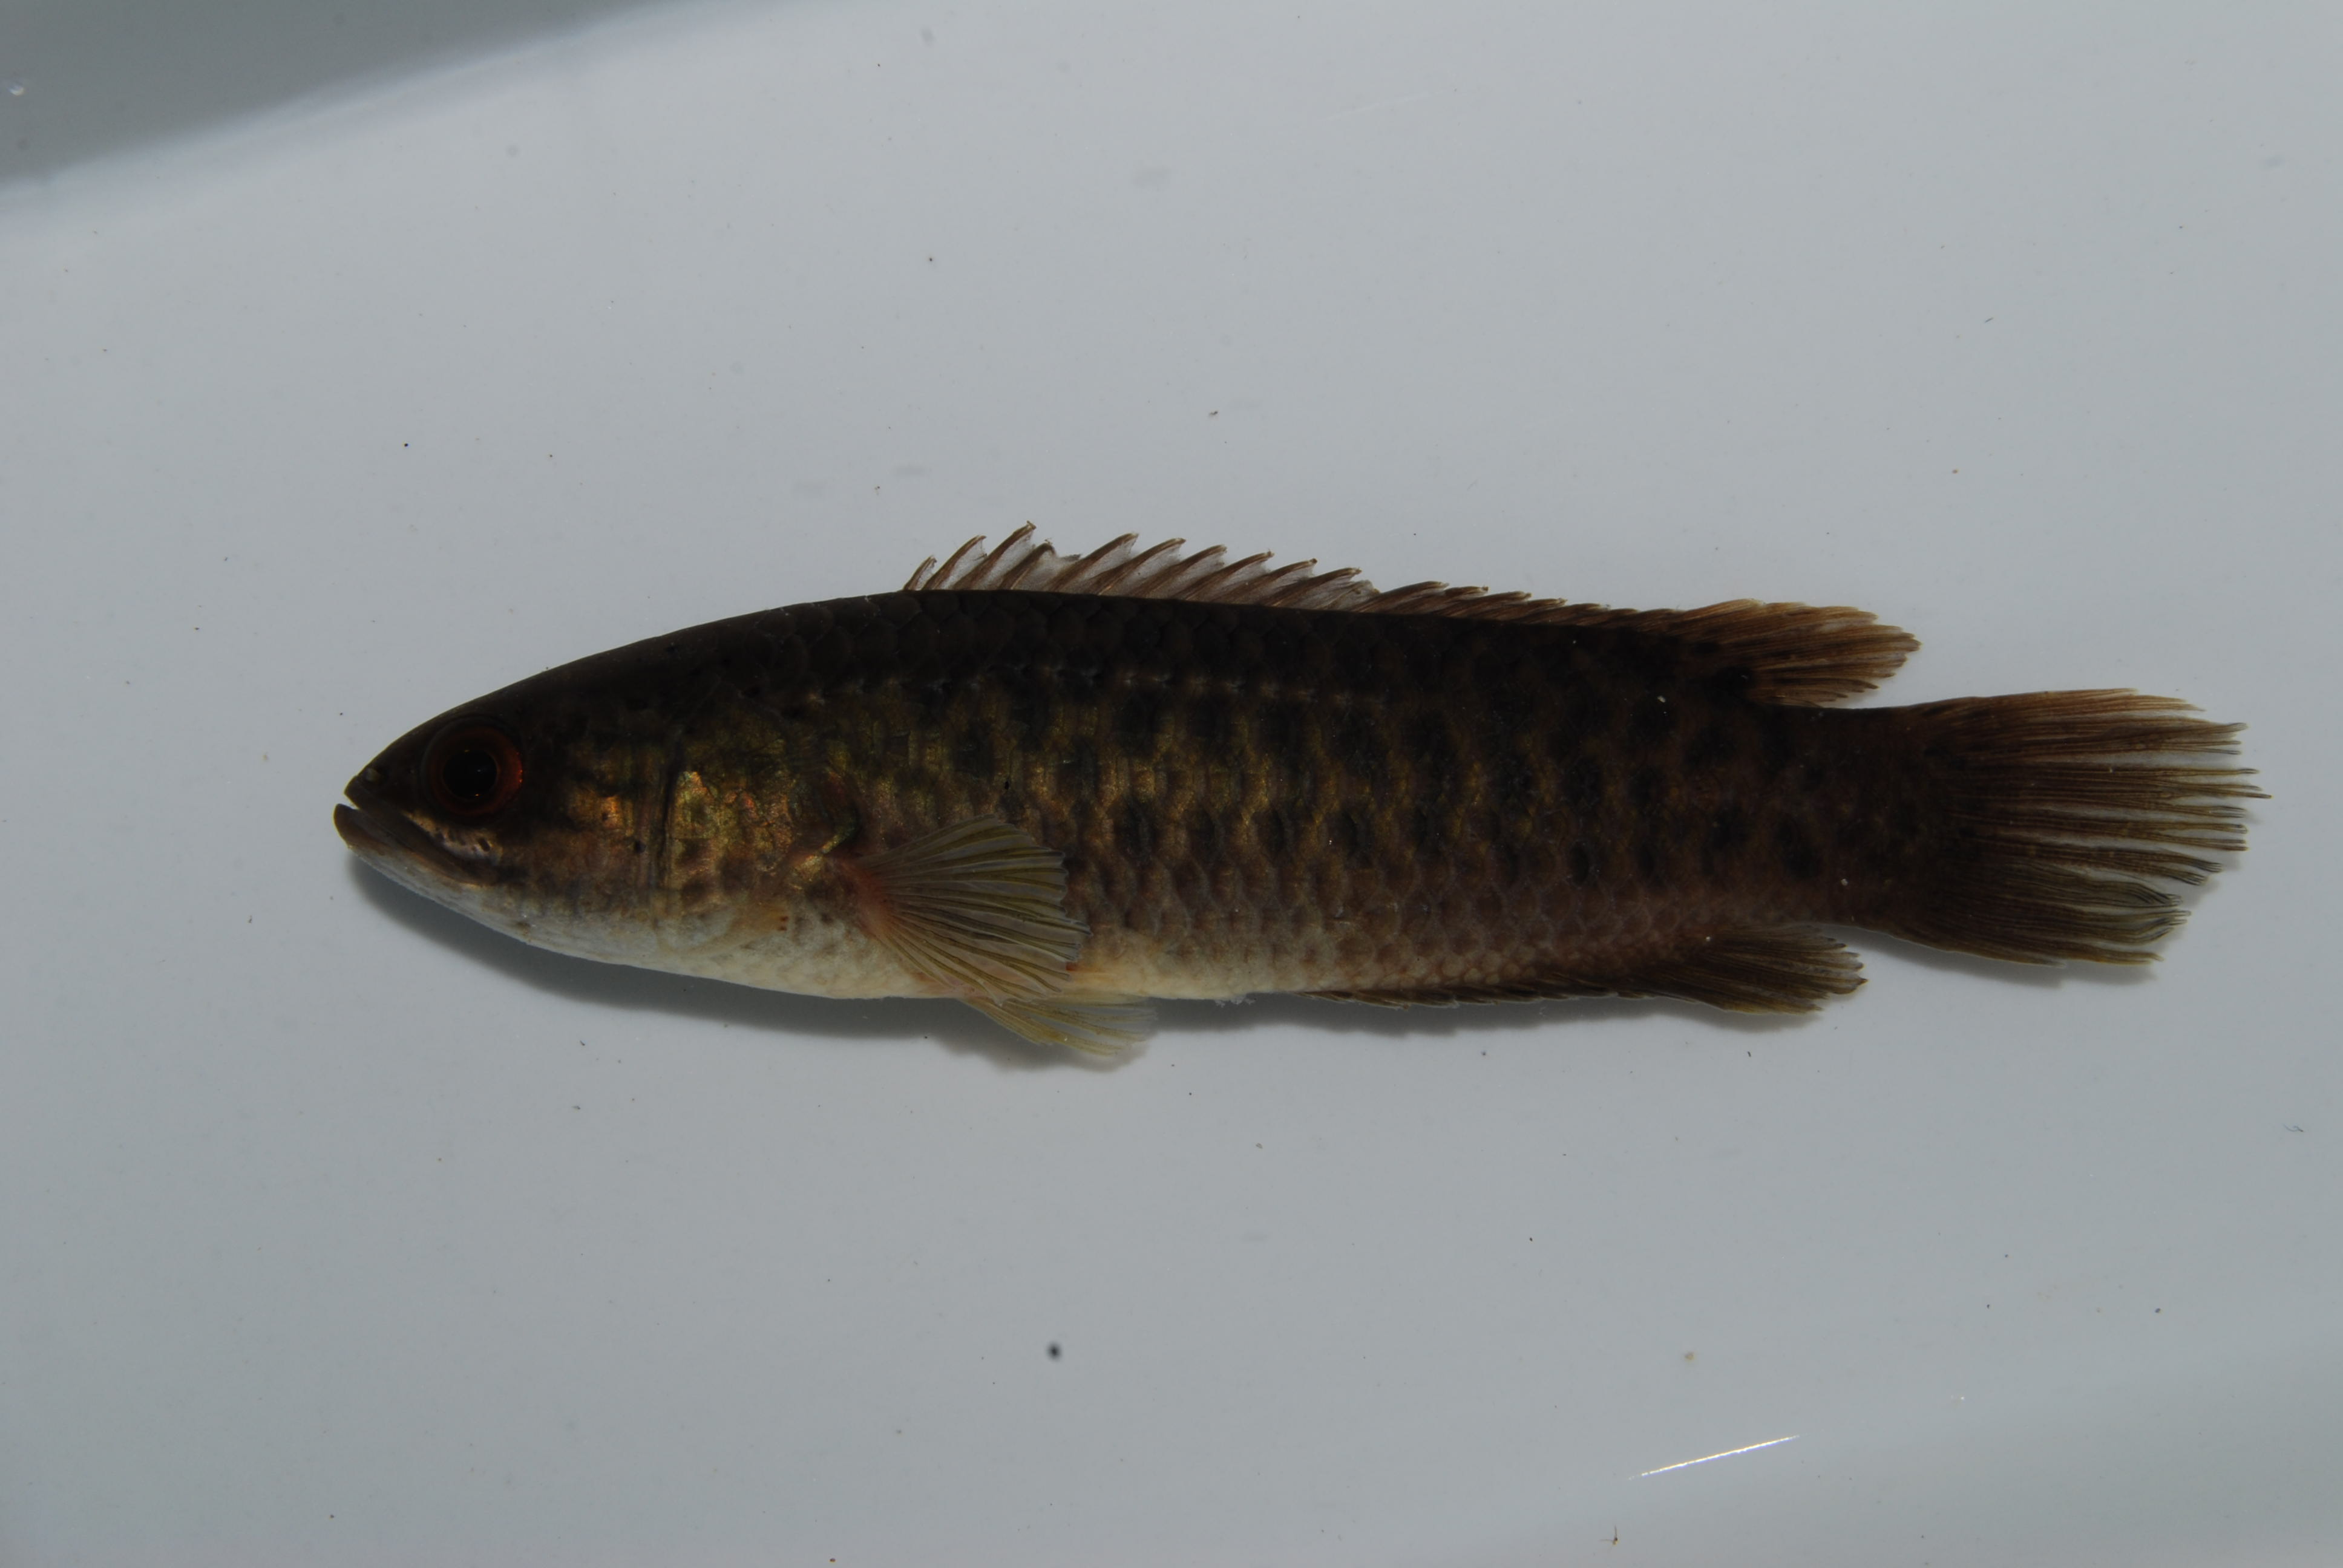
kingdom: Animalia
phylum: Chordata
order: Perciformes
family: Anabantidae
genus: Ctenopoma
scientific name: Ctenopoma multispine
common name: Manyspined climbing perch
